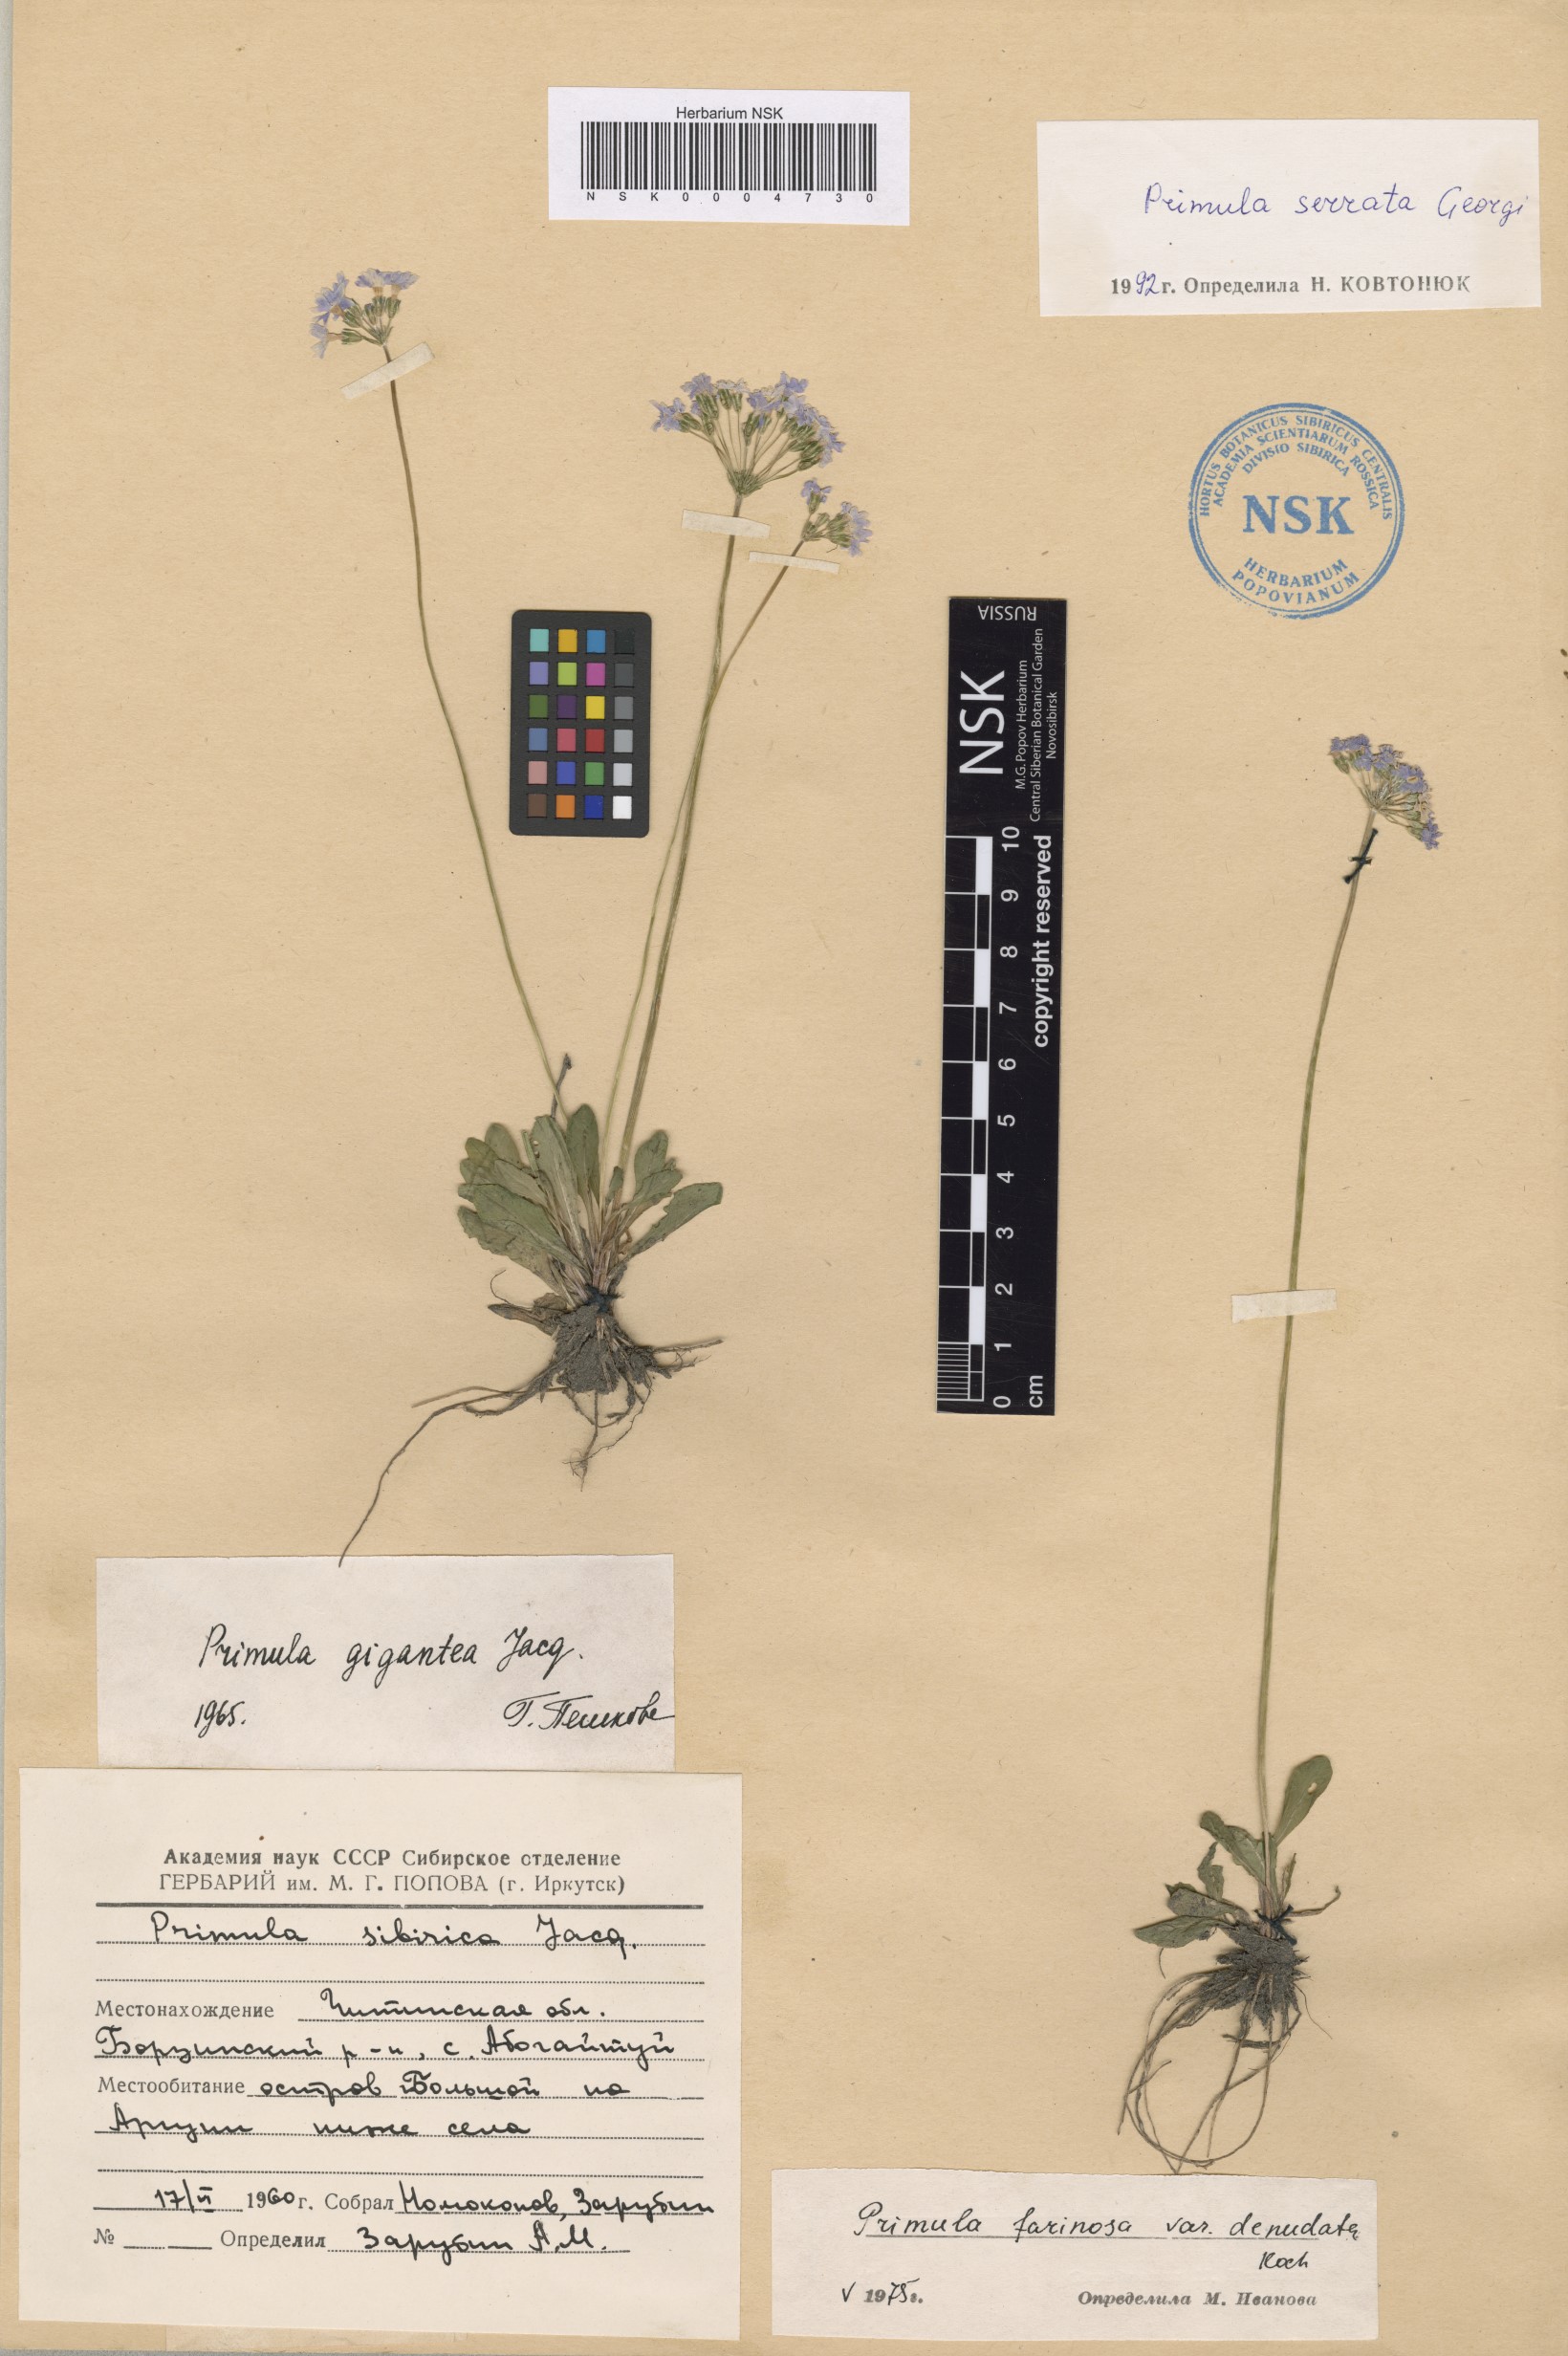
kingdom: Plantae
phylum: Tracheophyta
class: Magnoliopsida
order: Ericales
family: Primulaceae
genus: Primula
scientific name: Primula serrata
